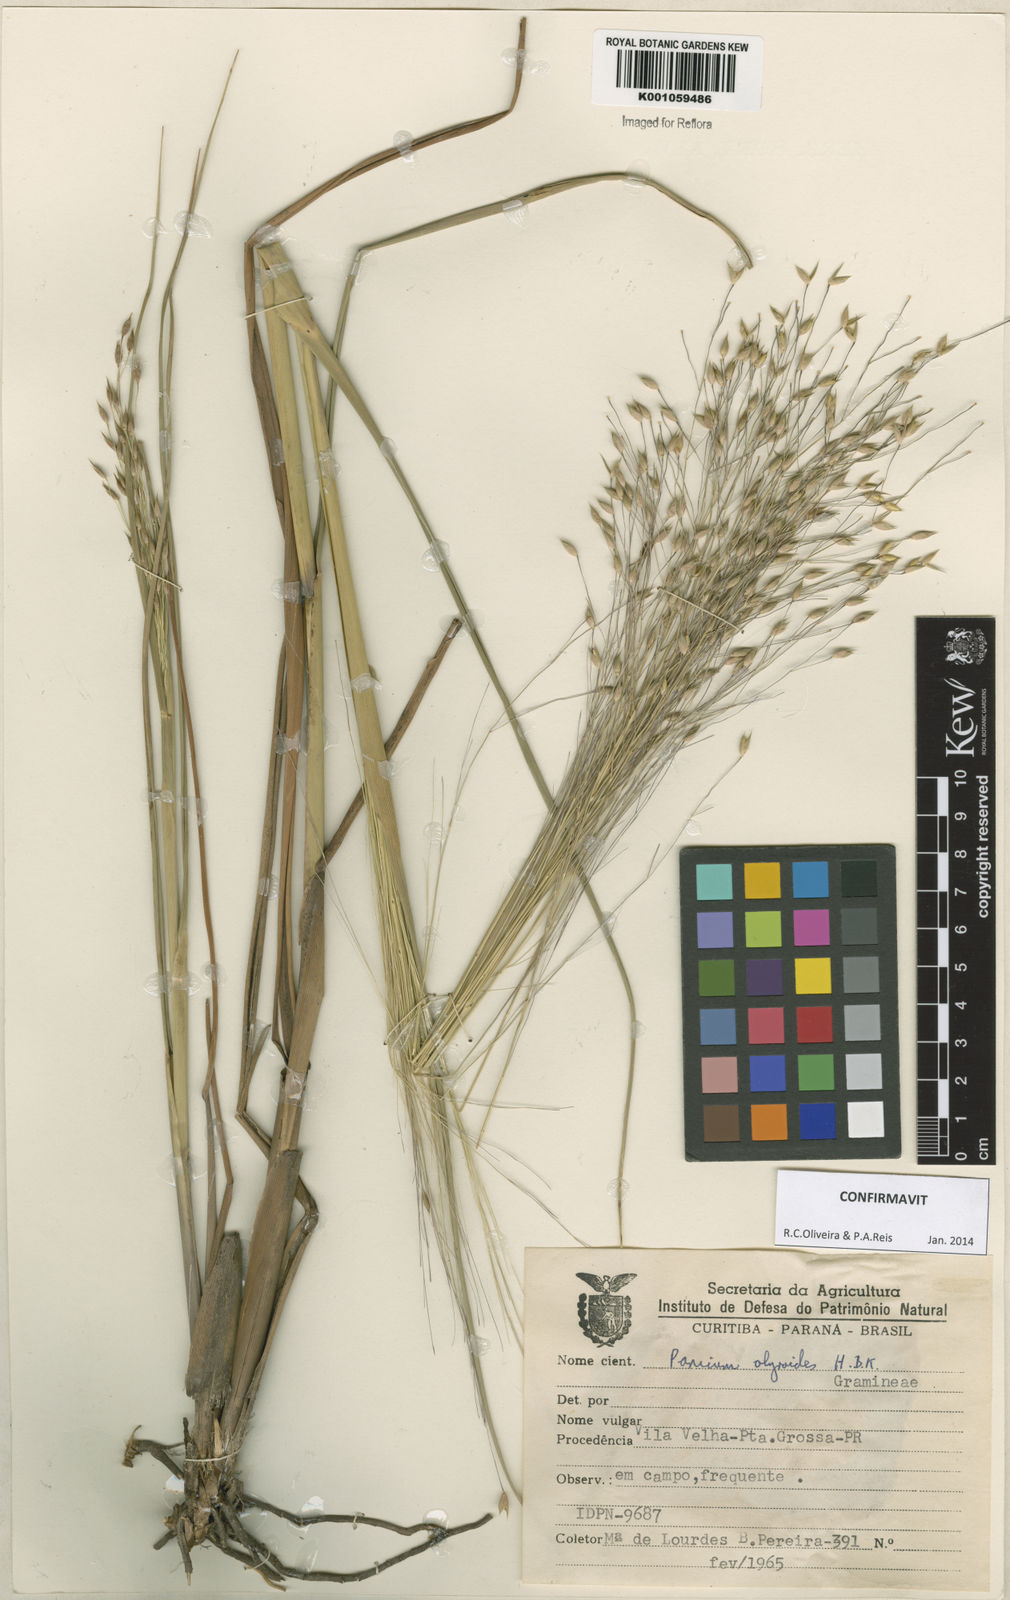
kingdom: Plantae
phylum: Tracheophyta
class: Liliopsida
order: Poales
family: Poaceae
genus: Panicum
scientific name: Panicum olyroides
